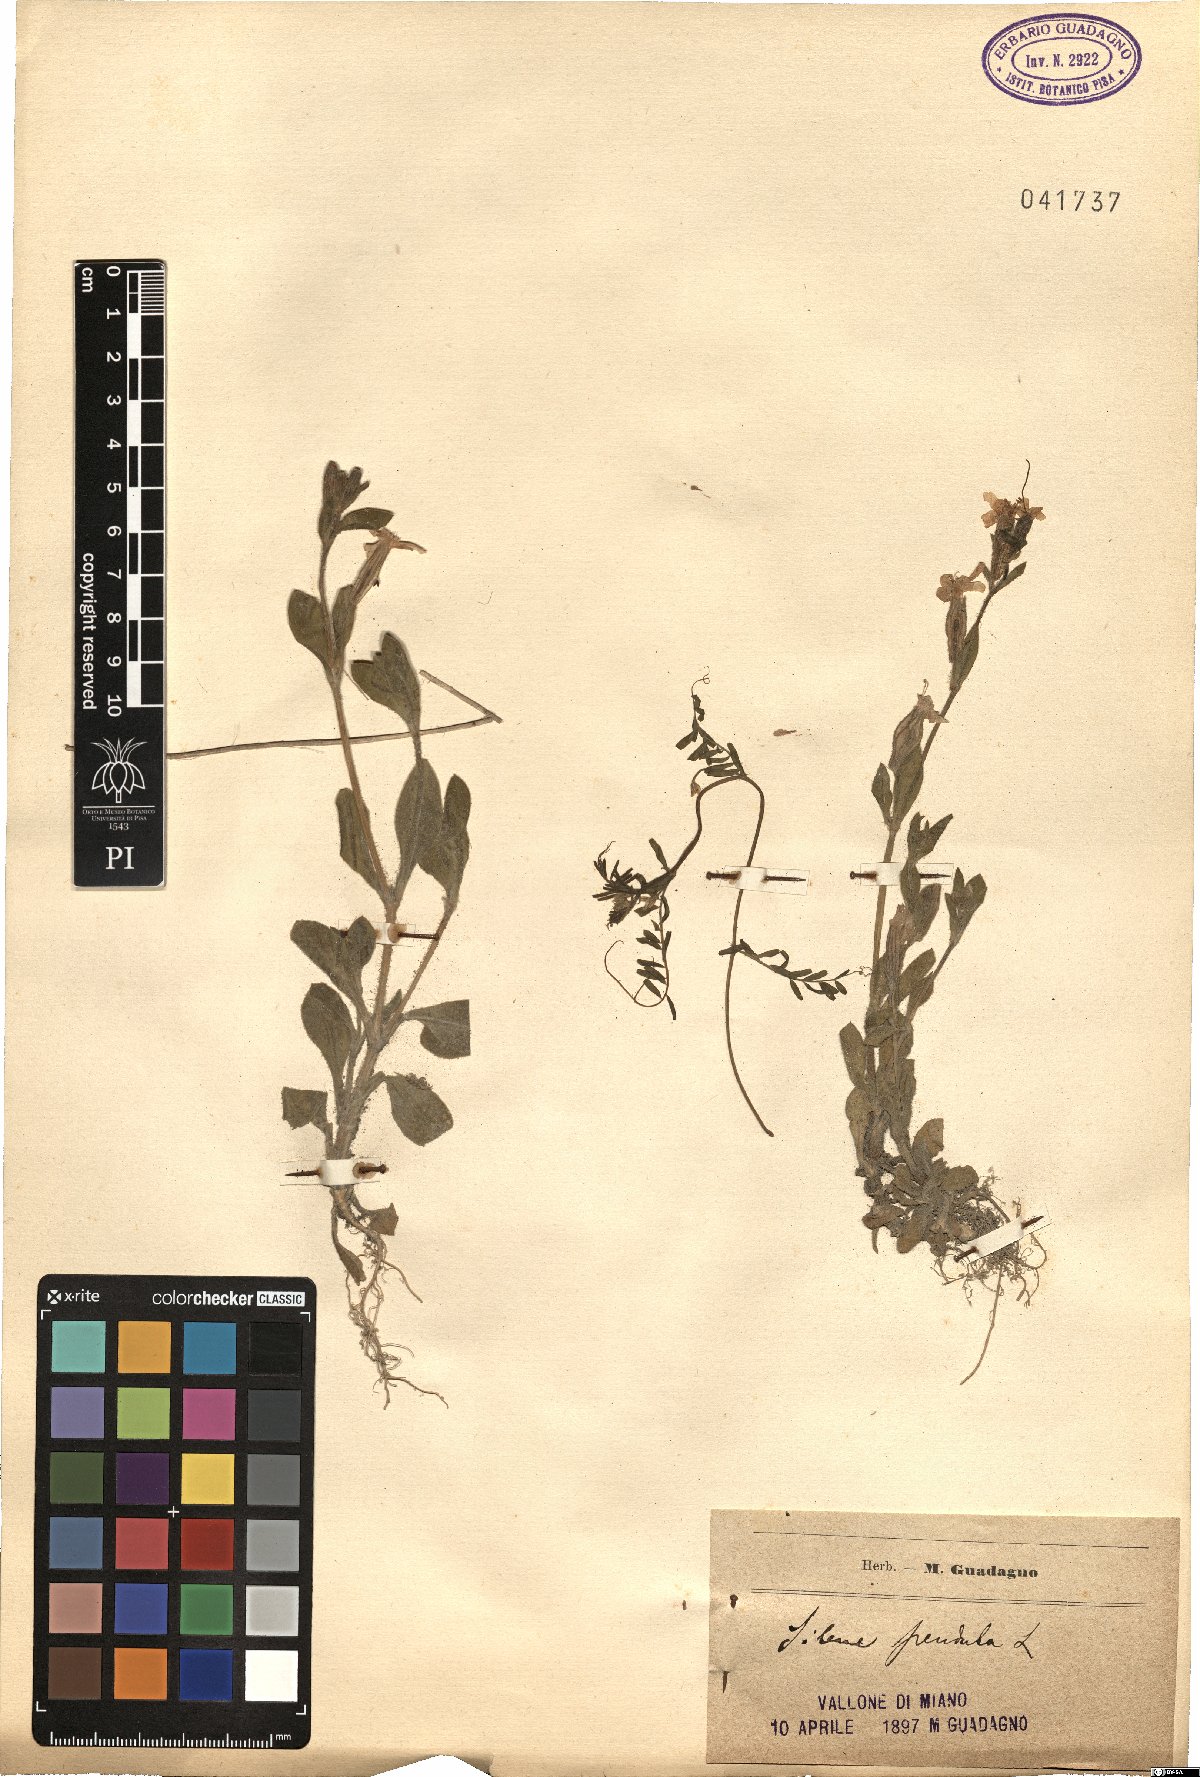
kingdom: Plantae
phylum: Tracheophyta
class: Magnoliopsida
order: Caryophyllales
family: Caryophyllaceae
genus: Silene
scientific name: Silene pendula
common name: Nodding catchfly
